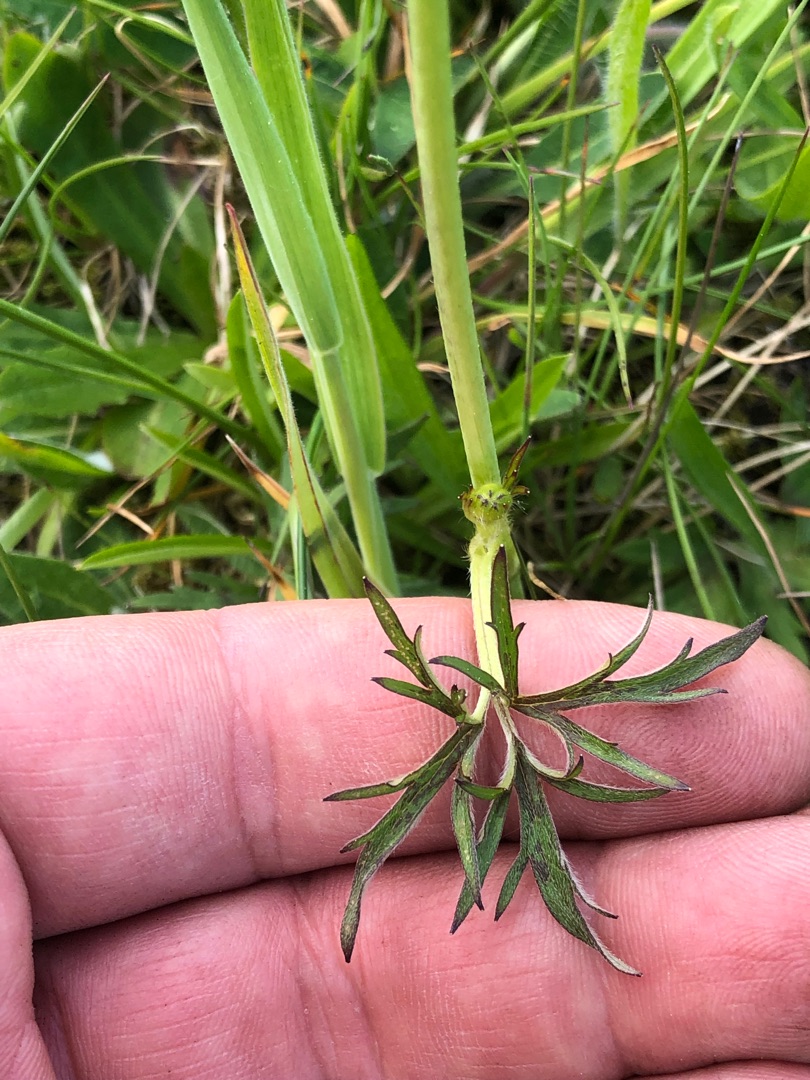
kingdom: Plantae
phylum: Tracheophyta
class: Magnoliopsida
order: Ranunculales
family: Ranunculaceae
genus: Ranunculus
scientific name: Ranunculus acris
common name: Bidende ranunkel
